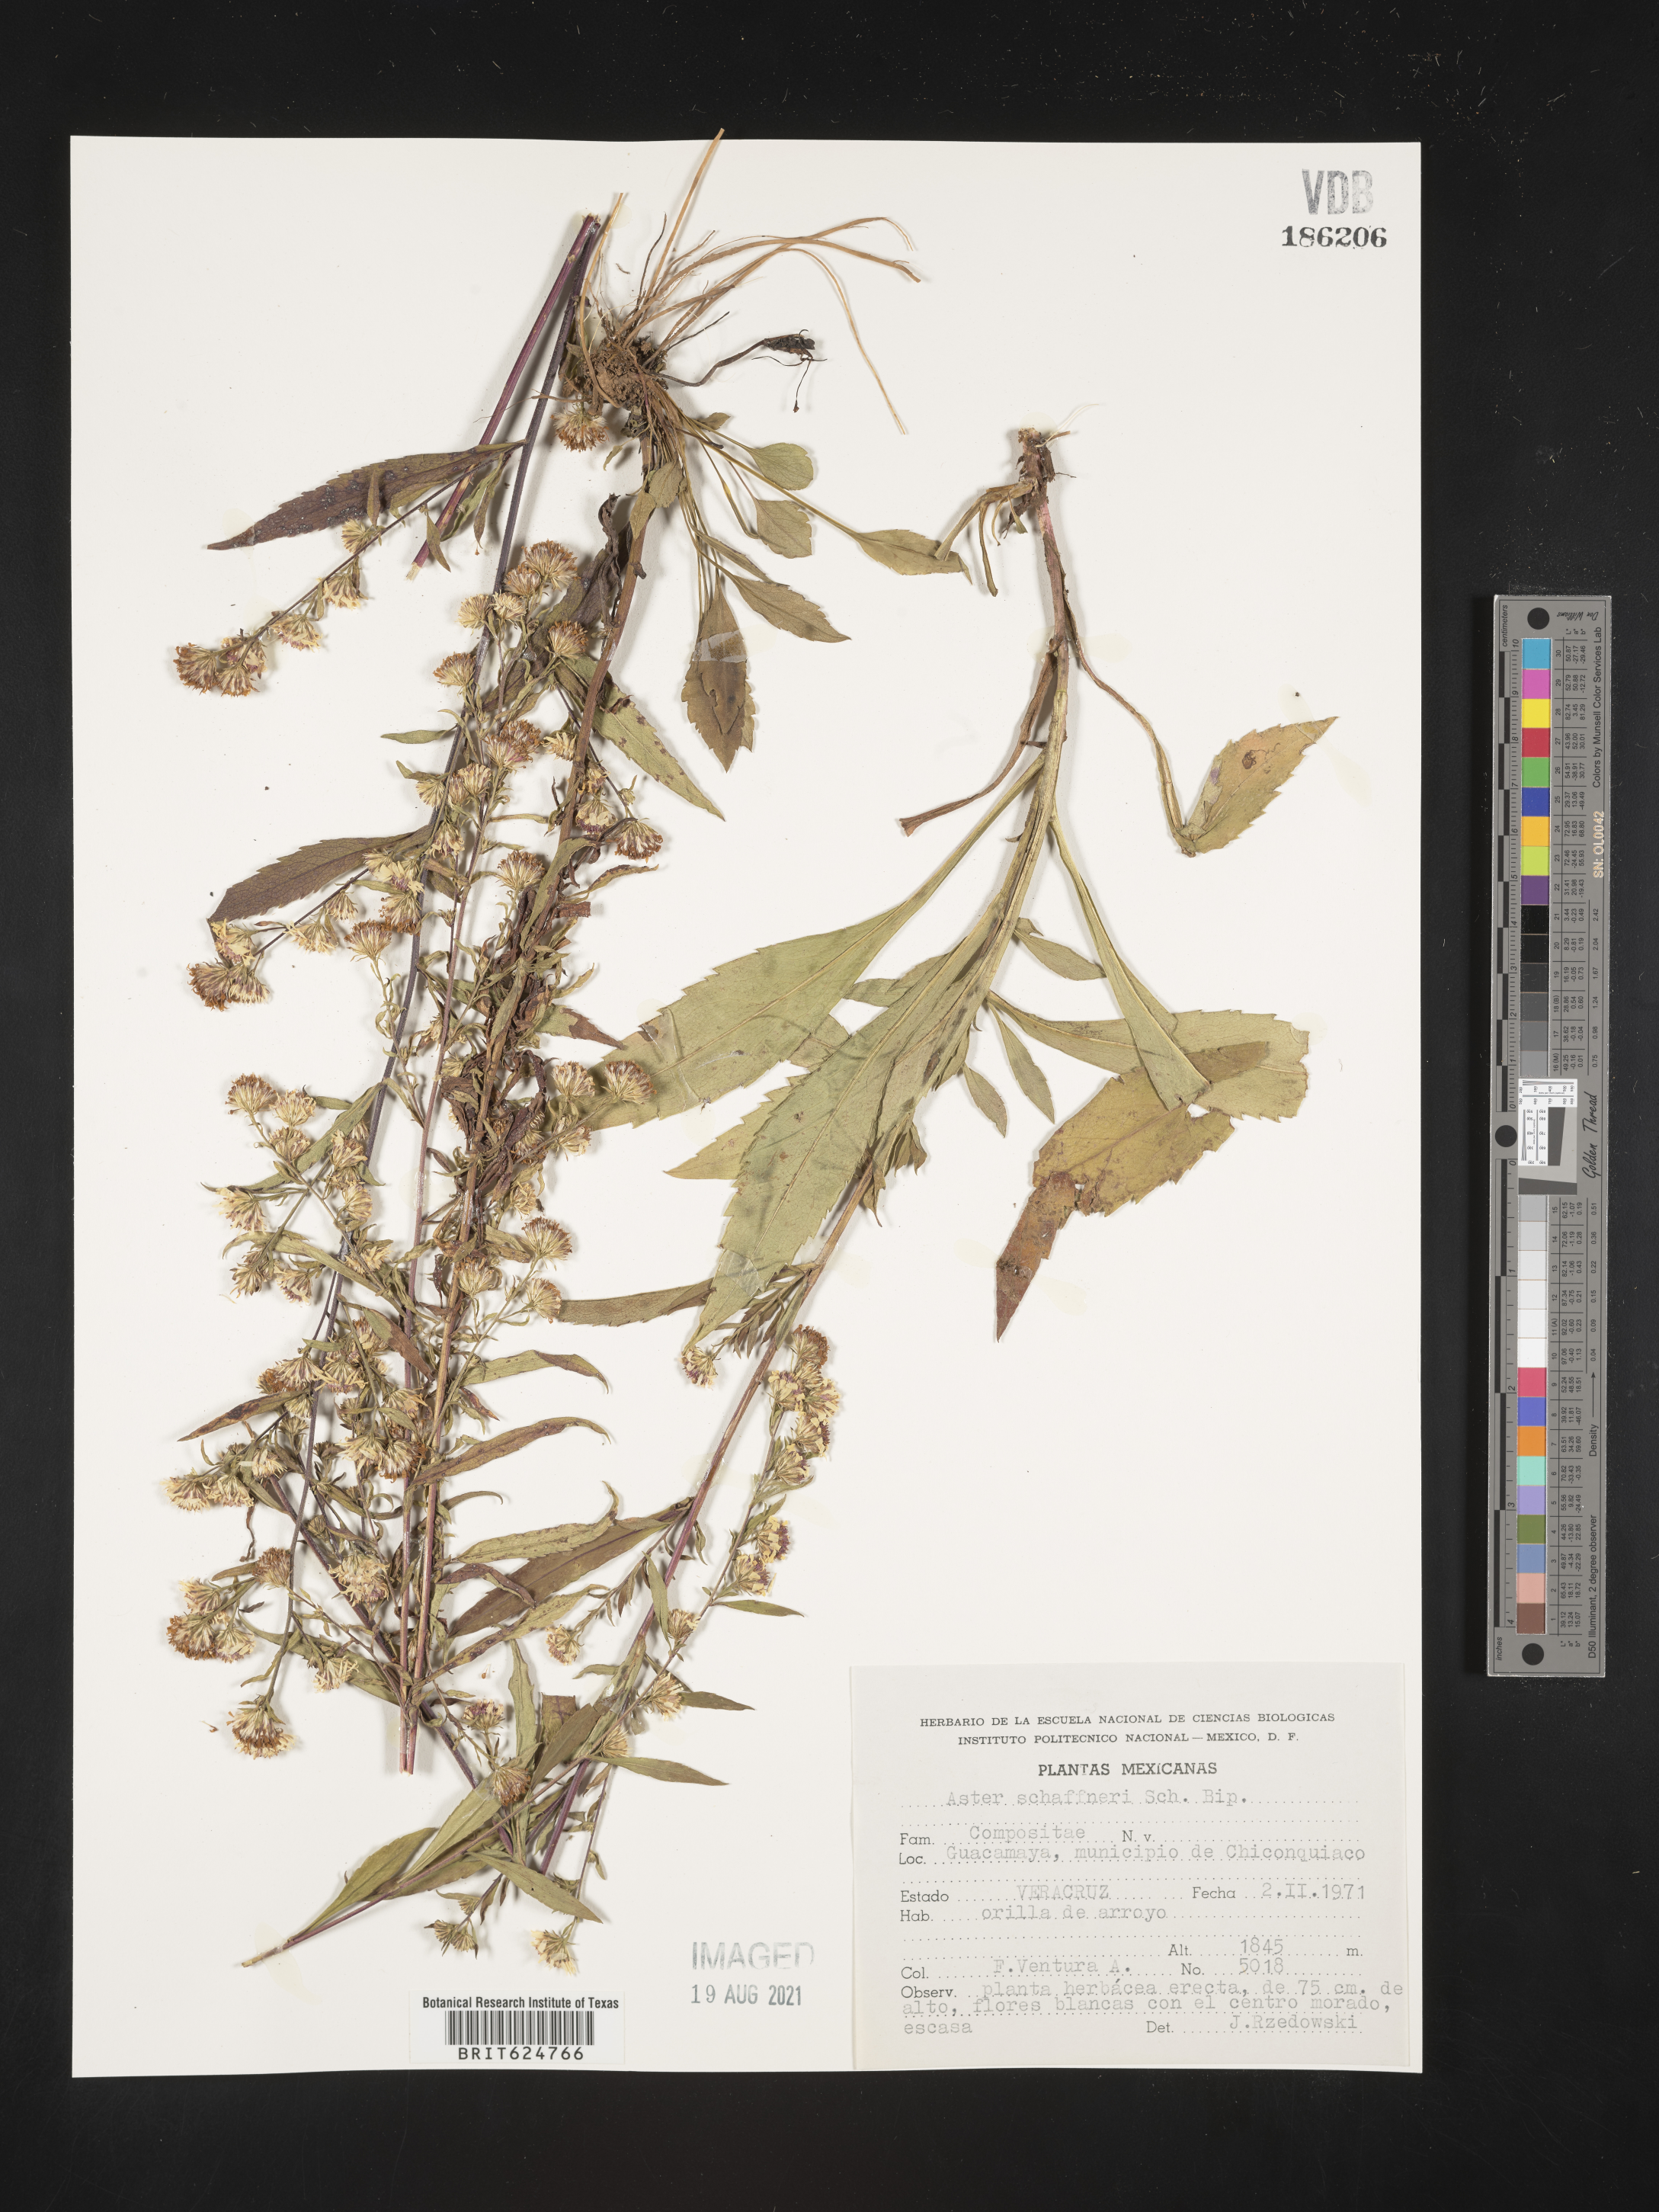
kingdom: Plantae
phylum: Tracheophyta
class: Magnoliopsida
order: Asterales
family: Asteraceae
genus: Aster
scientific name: Aster
